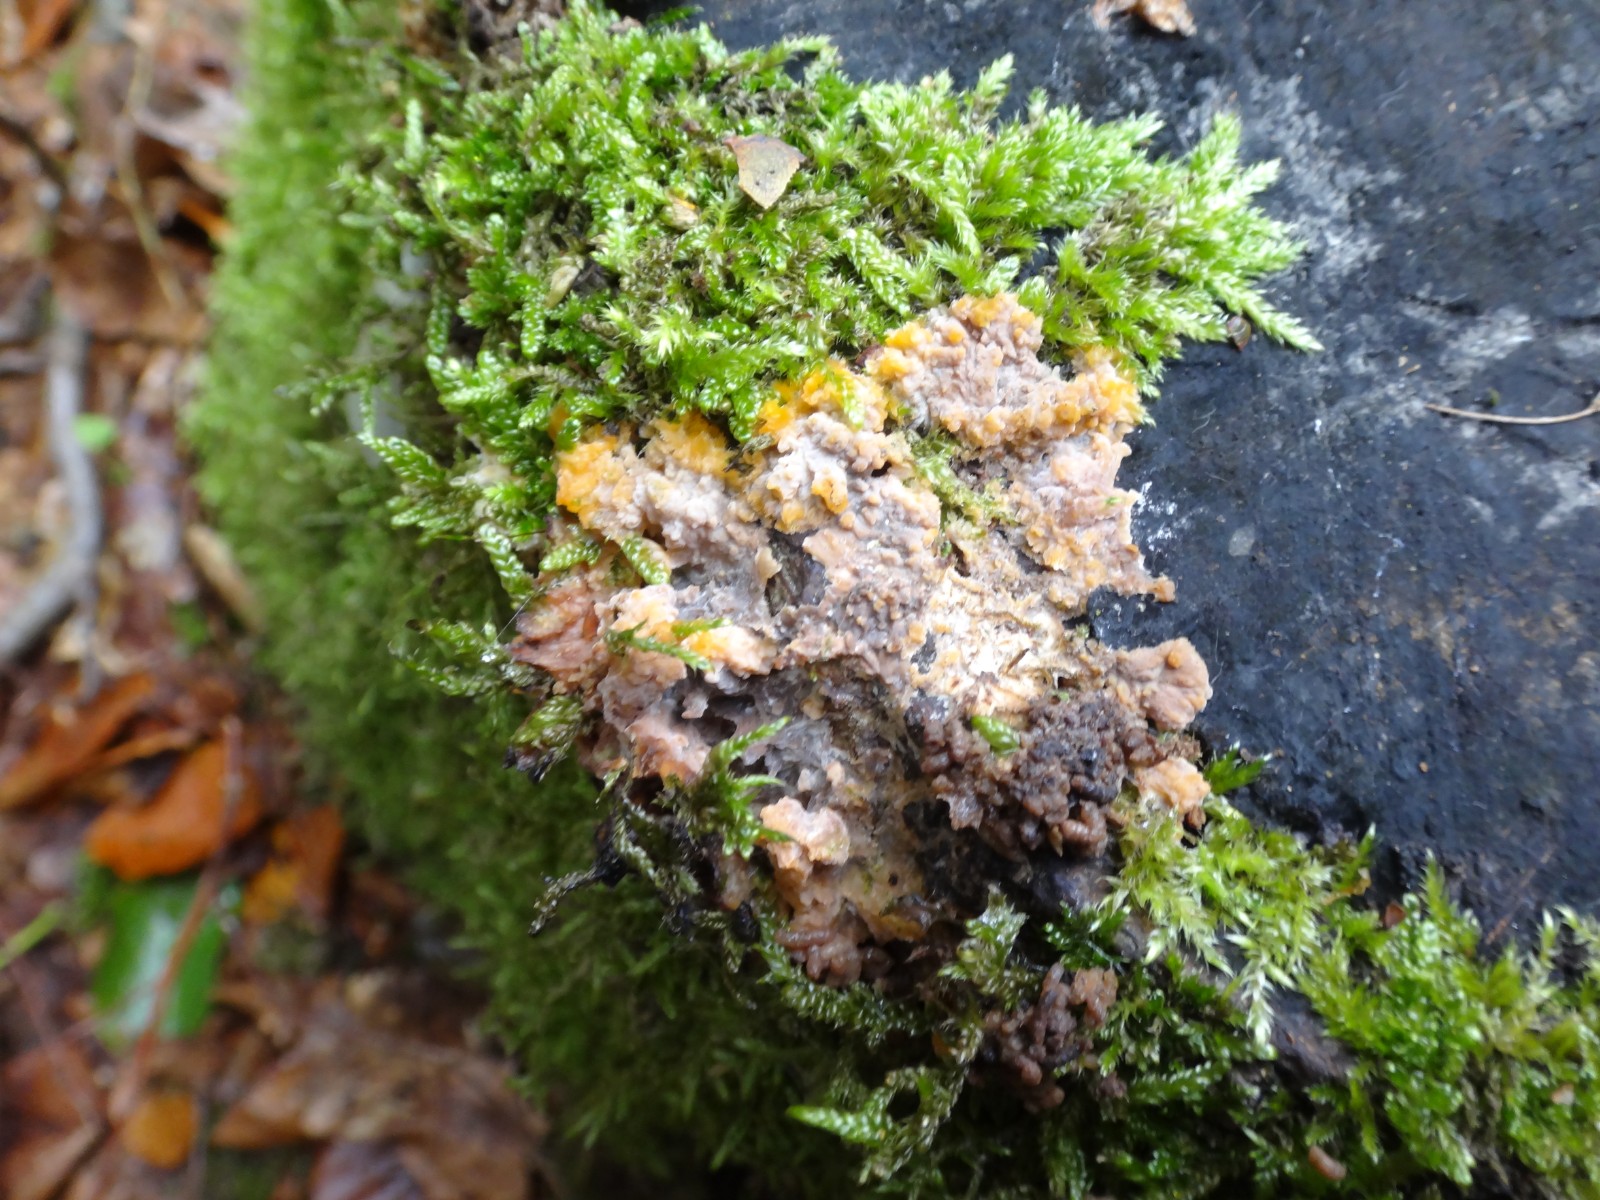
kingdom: Fungi
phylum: Basidiomycota
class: Agaricomycetes
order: Polyporales
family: Meruliaceae
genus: Phlebia
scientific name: Phlebia radiata
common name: stråle-åresvamp
